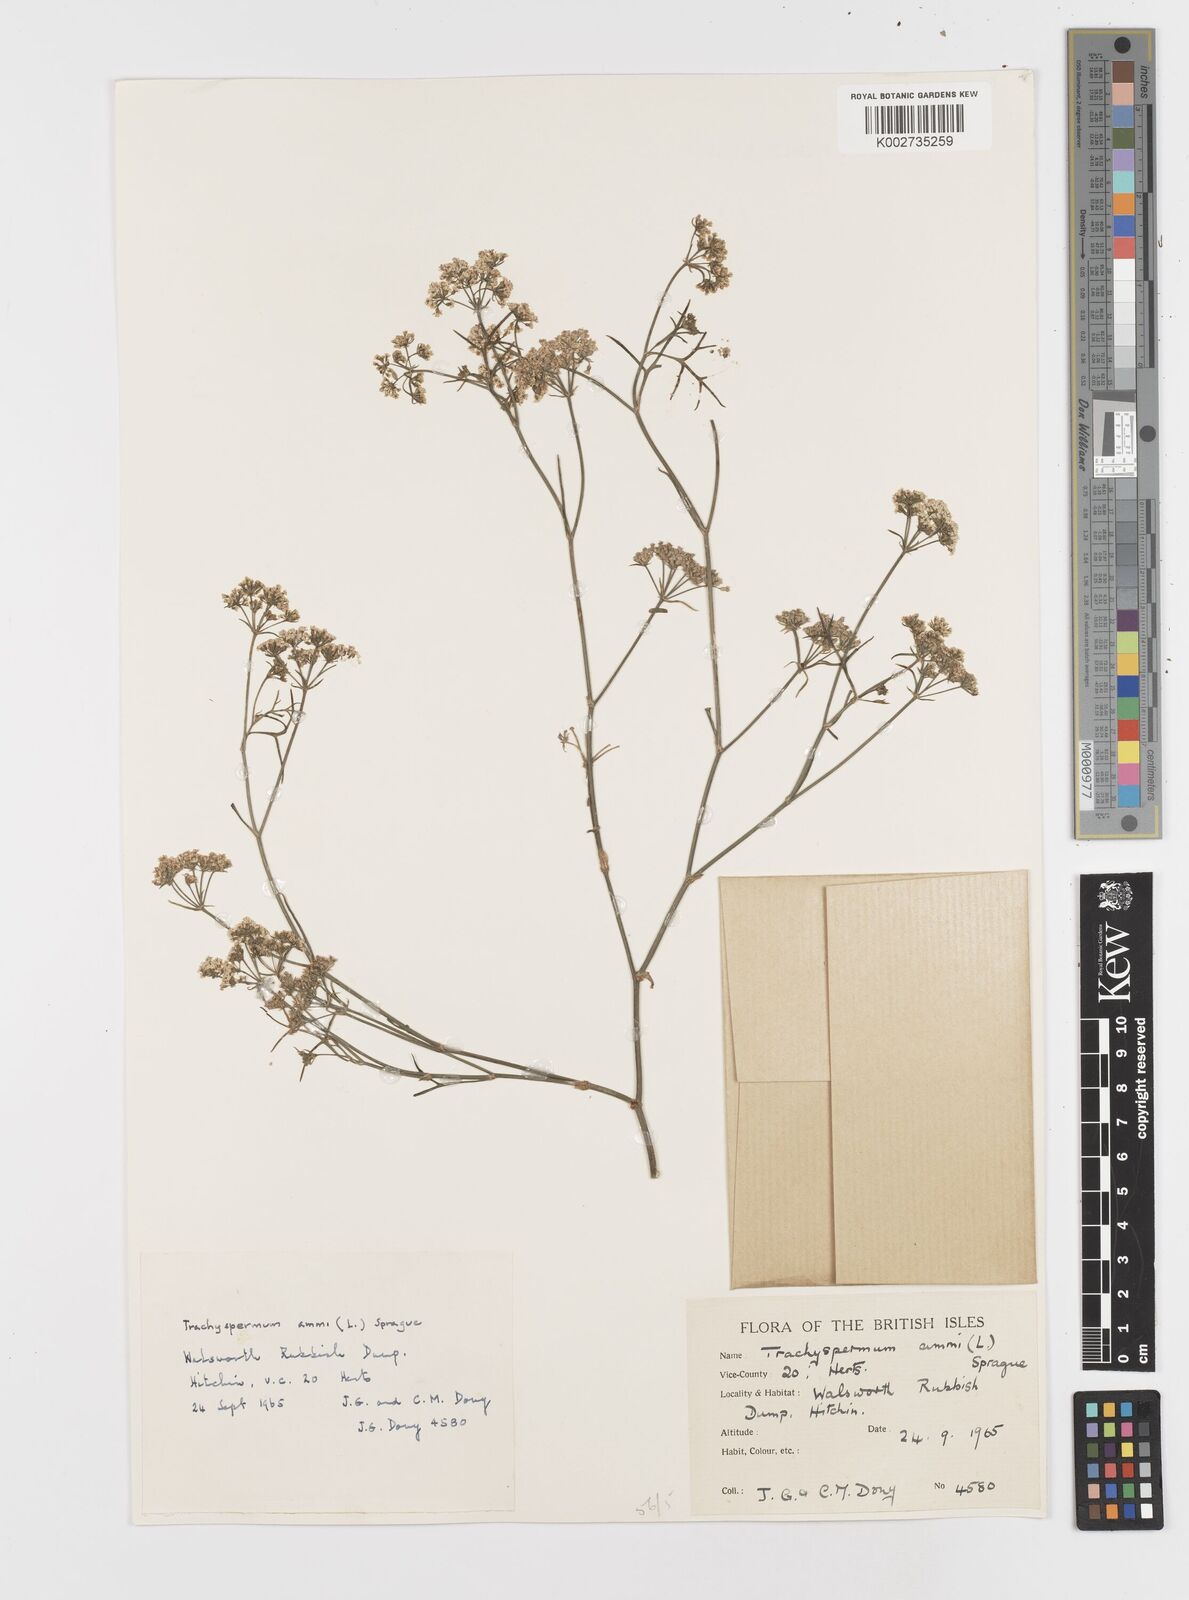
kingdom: Plantae
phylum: Tracheophyta
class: Magnoliopsida
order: Apiales
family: Apiaceae
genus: Trachyspermum
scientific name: Trachyspermum ammi
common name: Ajowan
